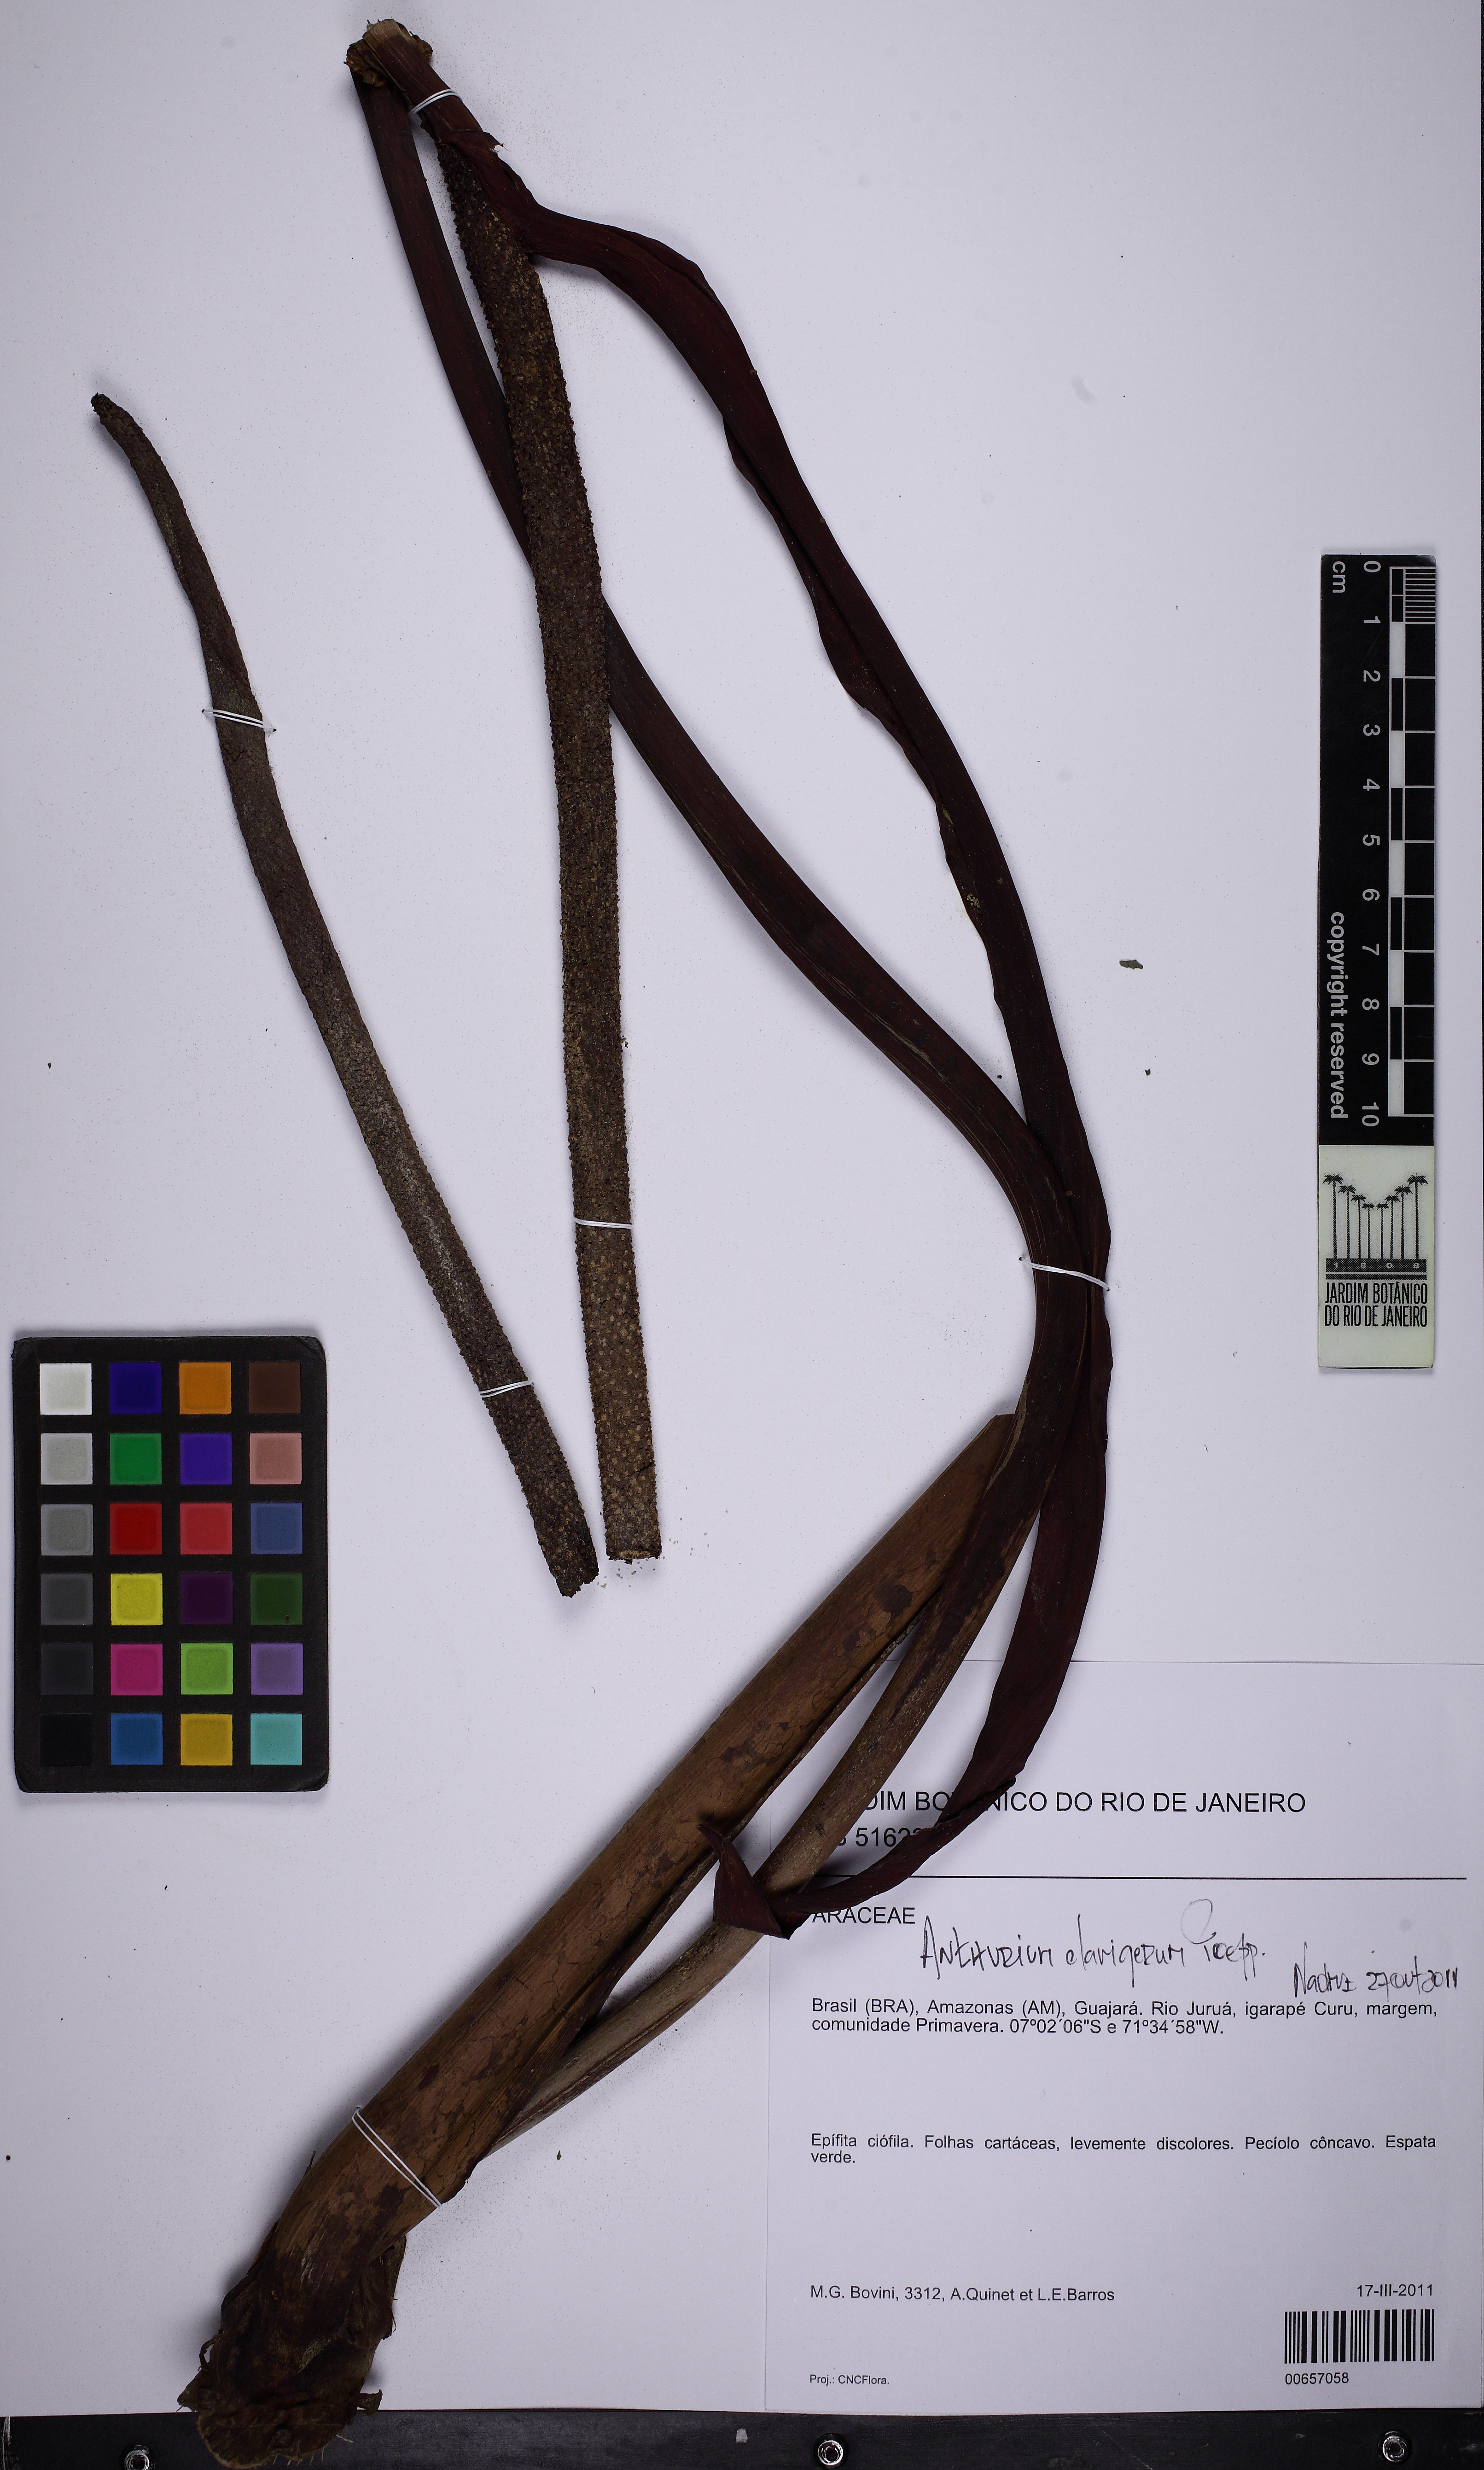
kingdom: Plantae
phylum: Tracheophyta
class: Liliopsida
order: Alismatales
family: Araceae
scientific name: Araceae
